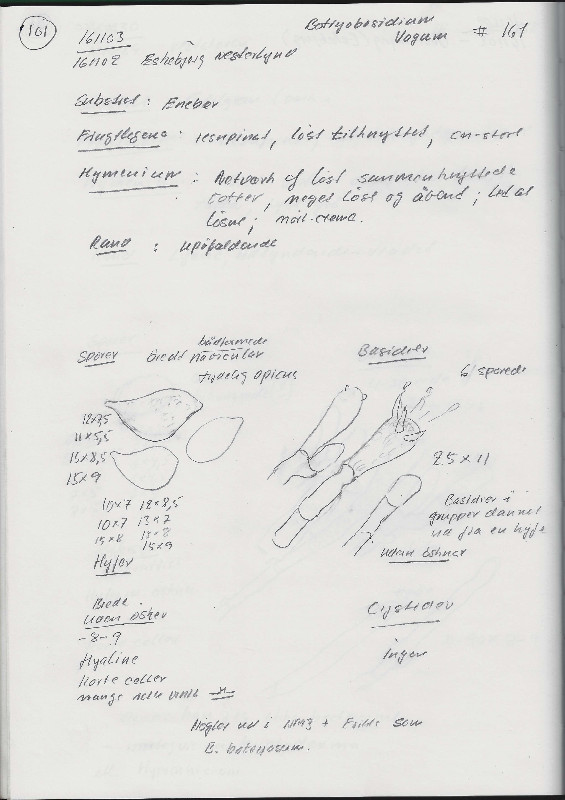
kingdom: Fungi
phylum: Basidiomycota
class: Agaricomycetes
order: Cantharellales
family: Botryobasidiaceae
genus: Botryobasidium
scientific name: Botryobasidium vagum
